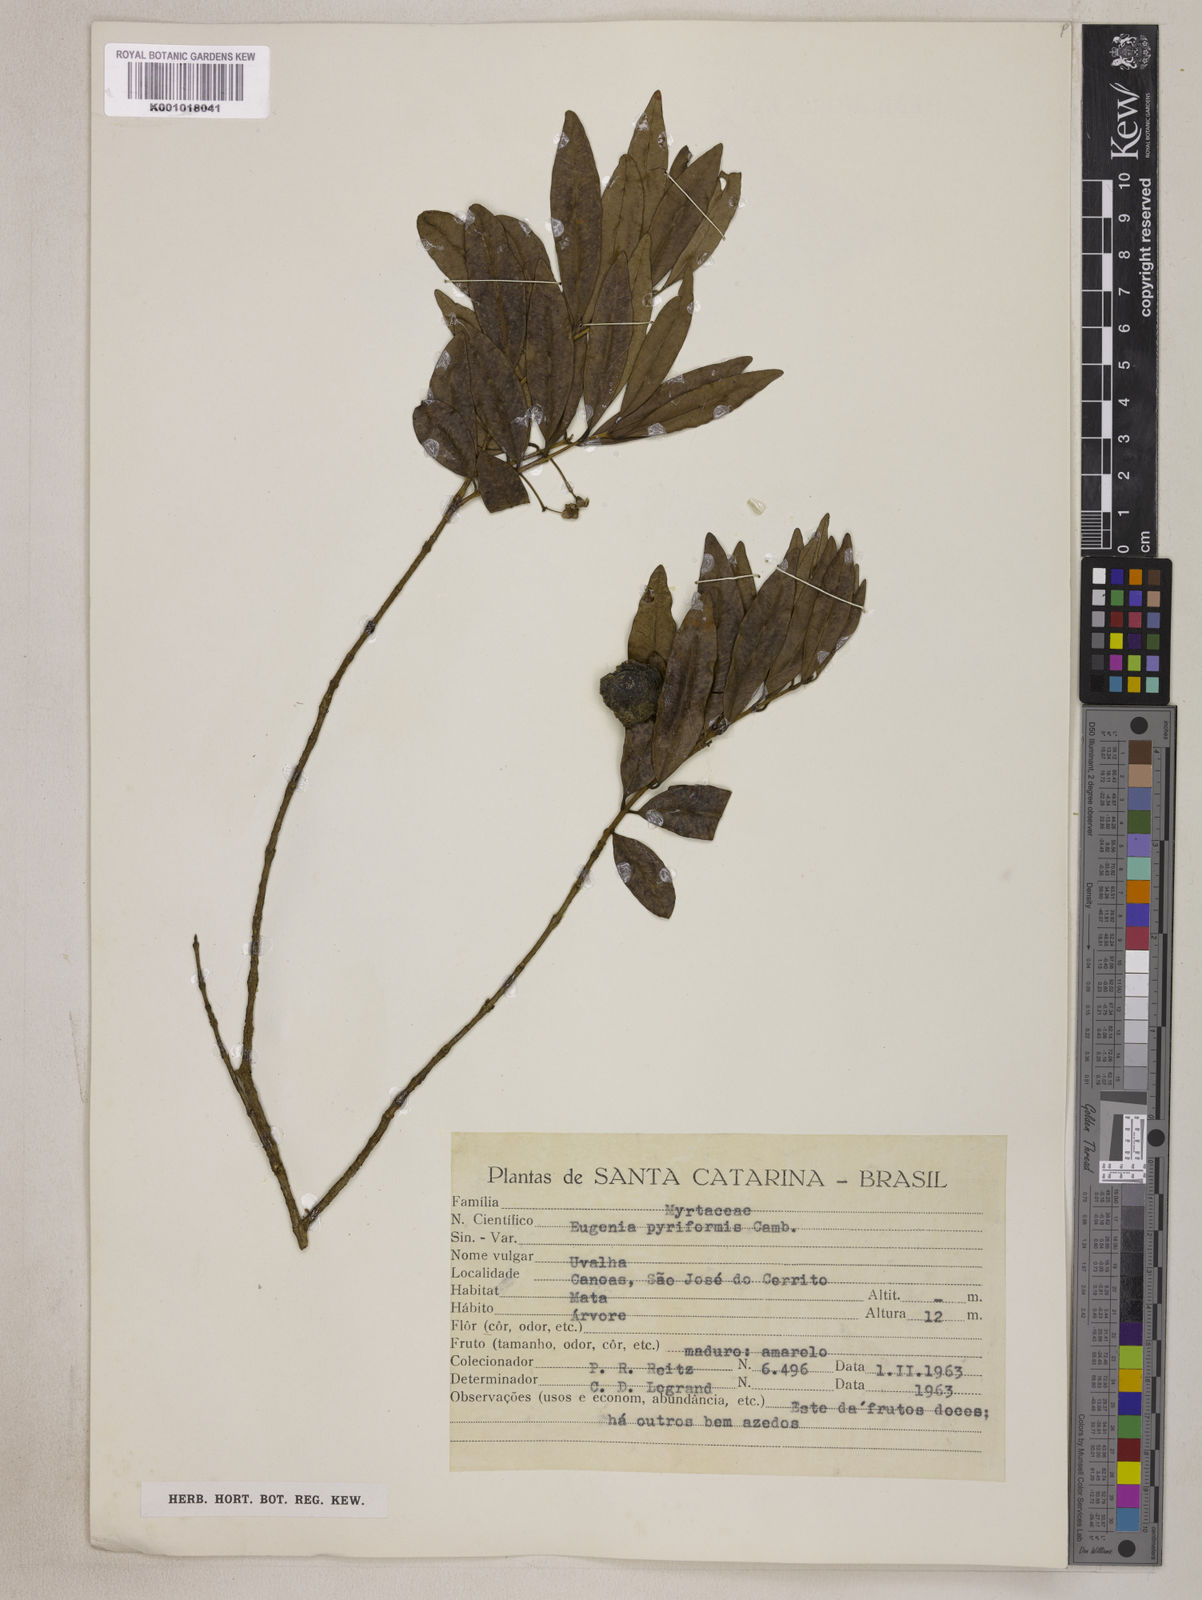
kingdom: Plantae
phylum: Tracheophyta
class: Magnoliopsida
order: Myrtales
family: Myrtaceae
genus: Eugenia
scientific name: Eugenia pyriformis
